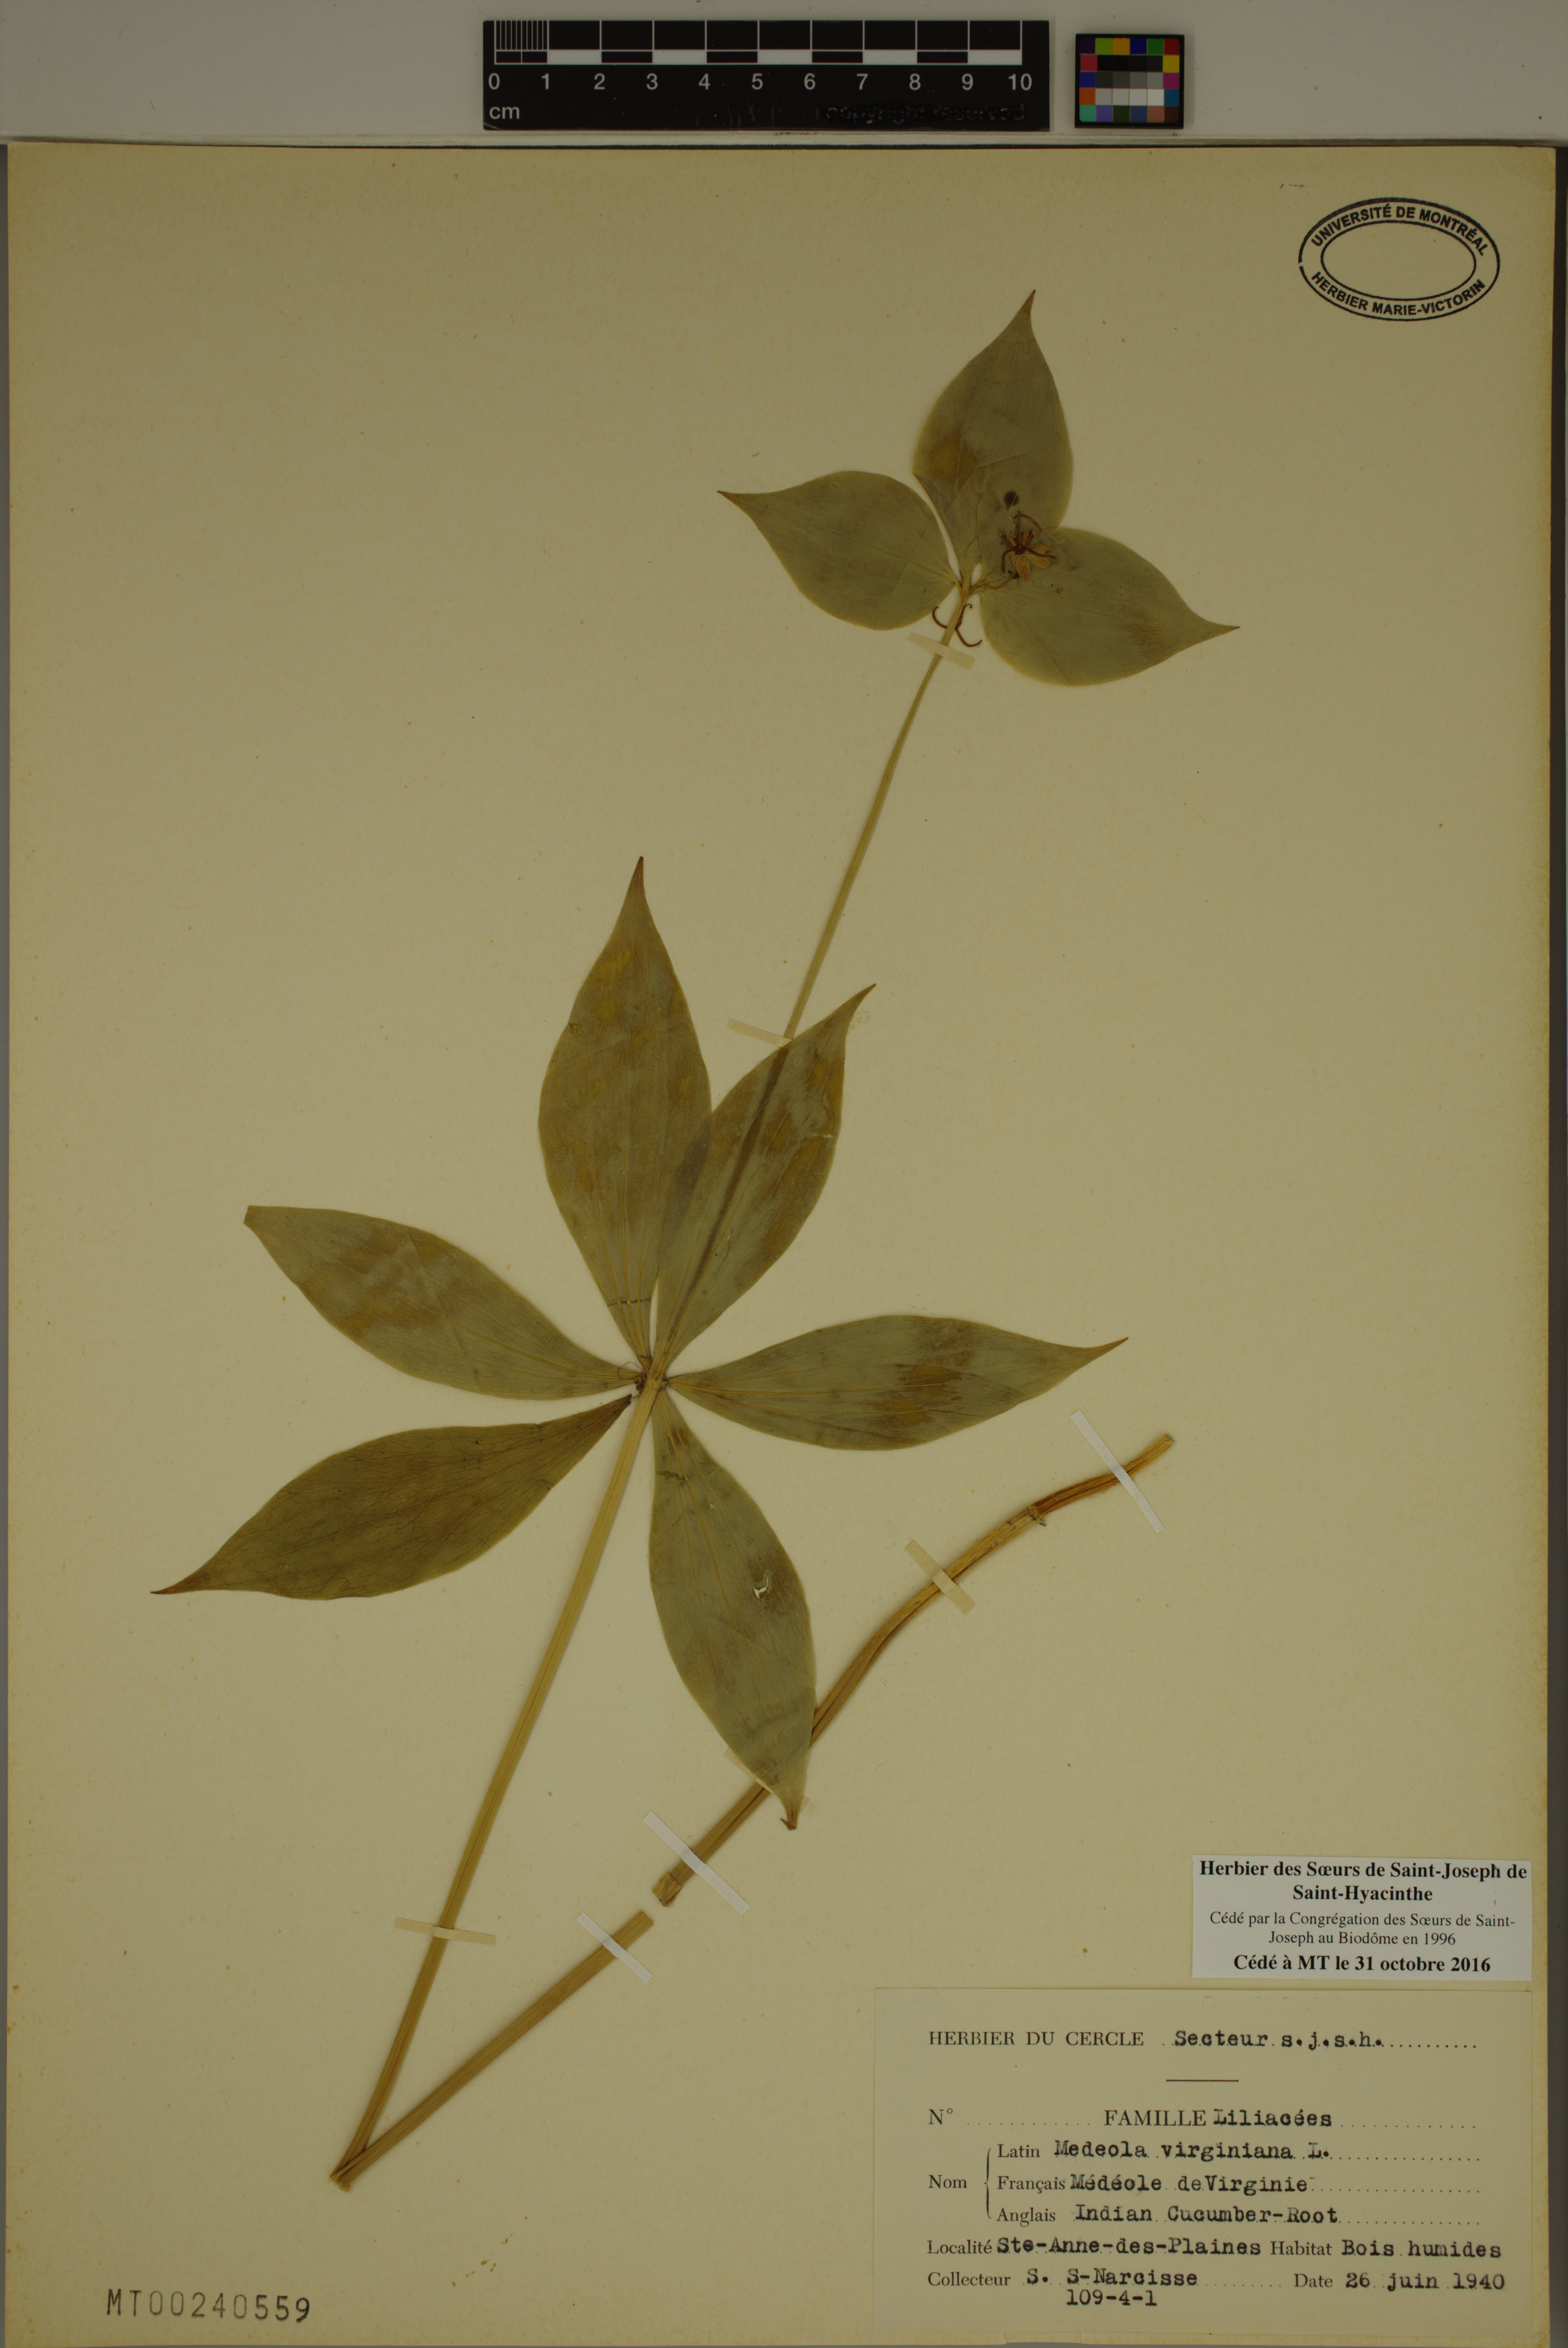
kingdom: Plantae
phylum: Tracheophyta
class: Liliopsida
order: Liliales
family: Liliaceae
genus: Medeola
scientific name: Medeola virginiana
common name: Indian cucumber-root
